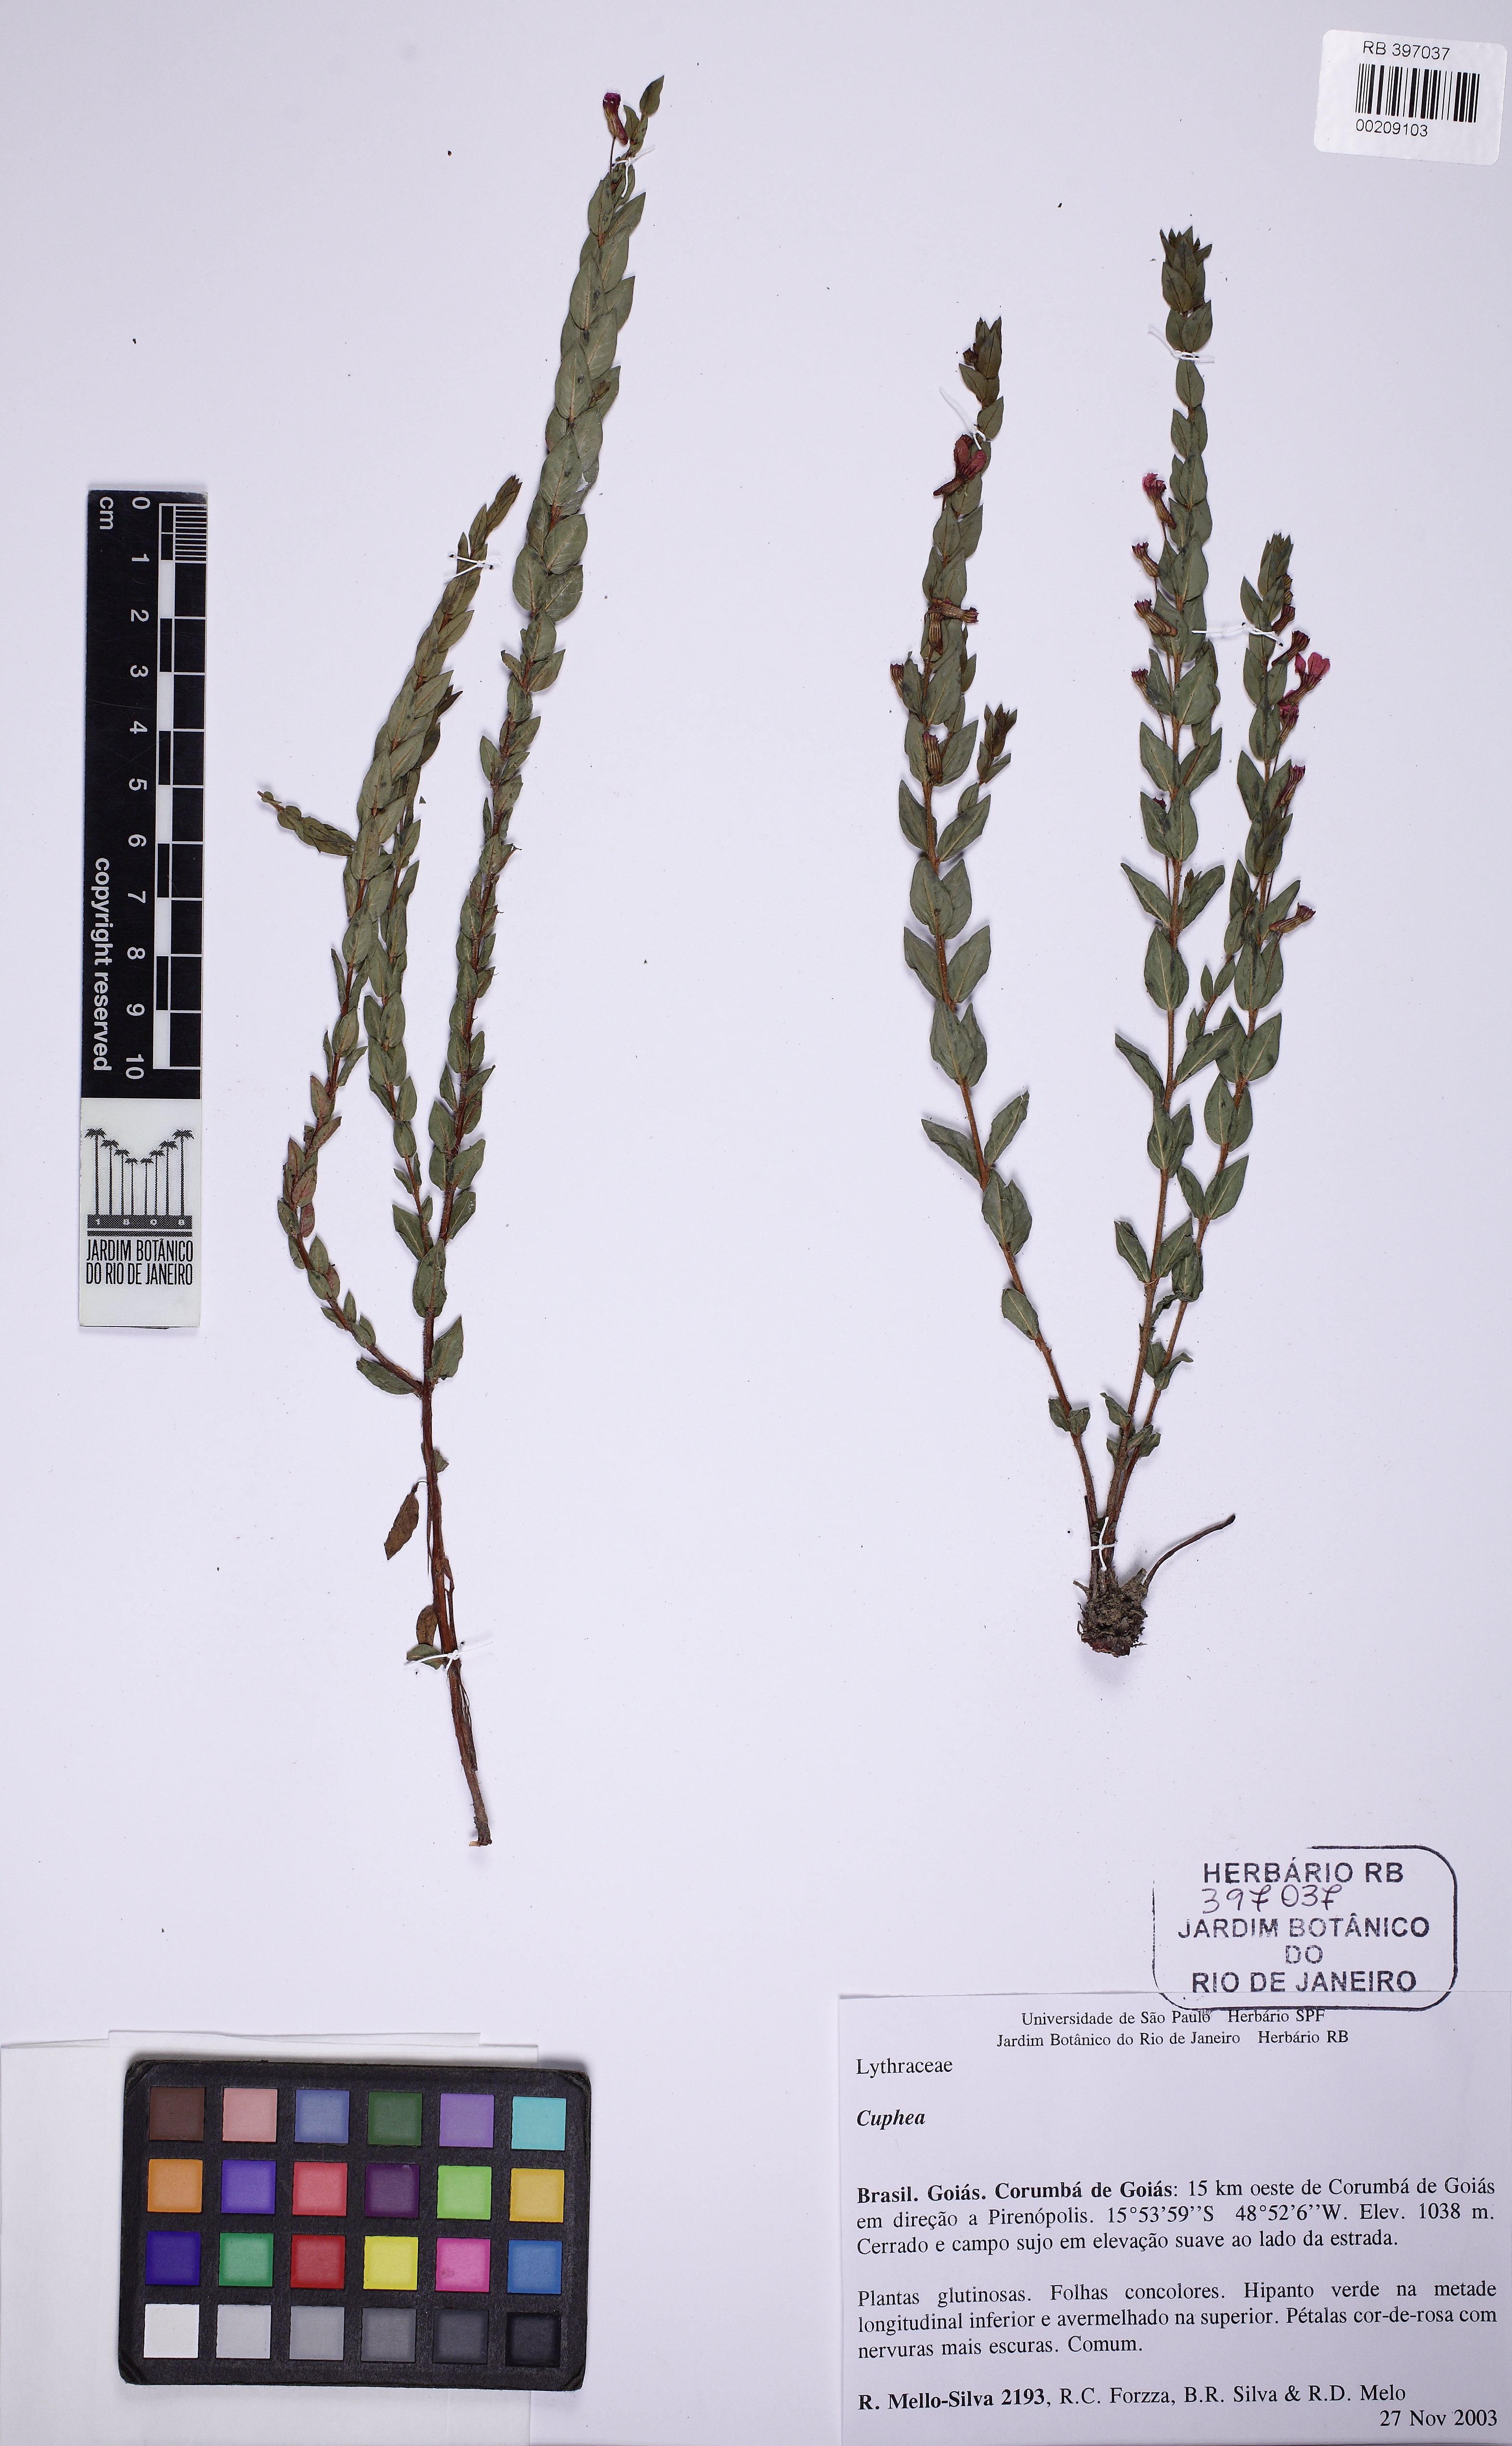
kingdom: Plantae
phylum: Tracheophyta
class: Magnoliopsida
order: Myrtales
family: Lythraceae
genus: Cuphea
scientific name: Cuphea spermacoce
